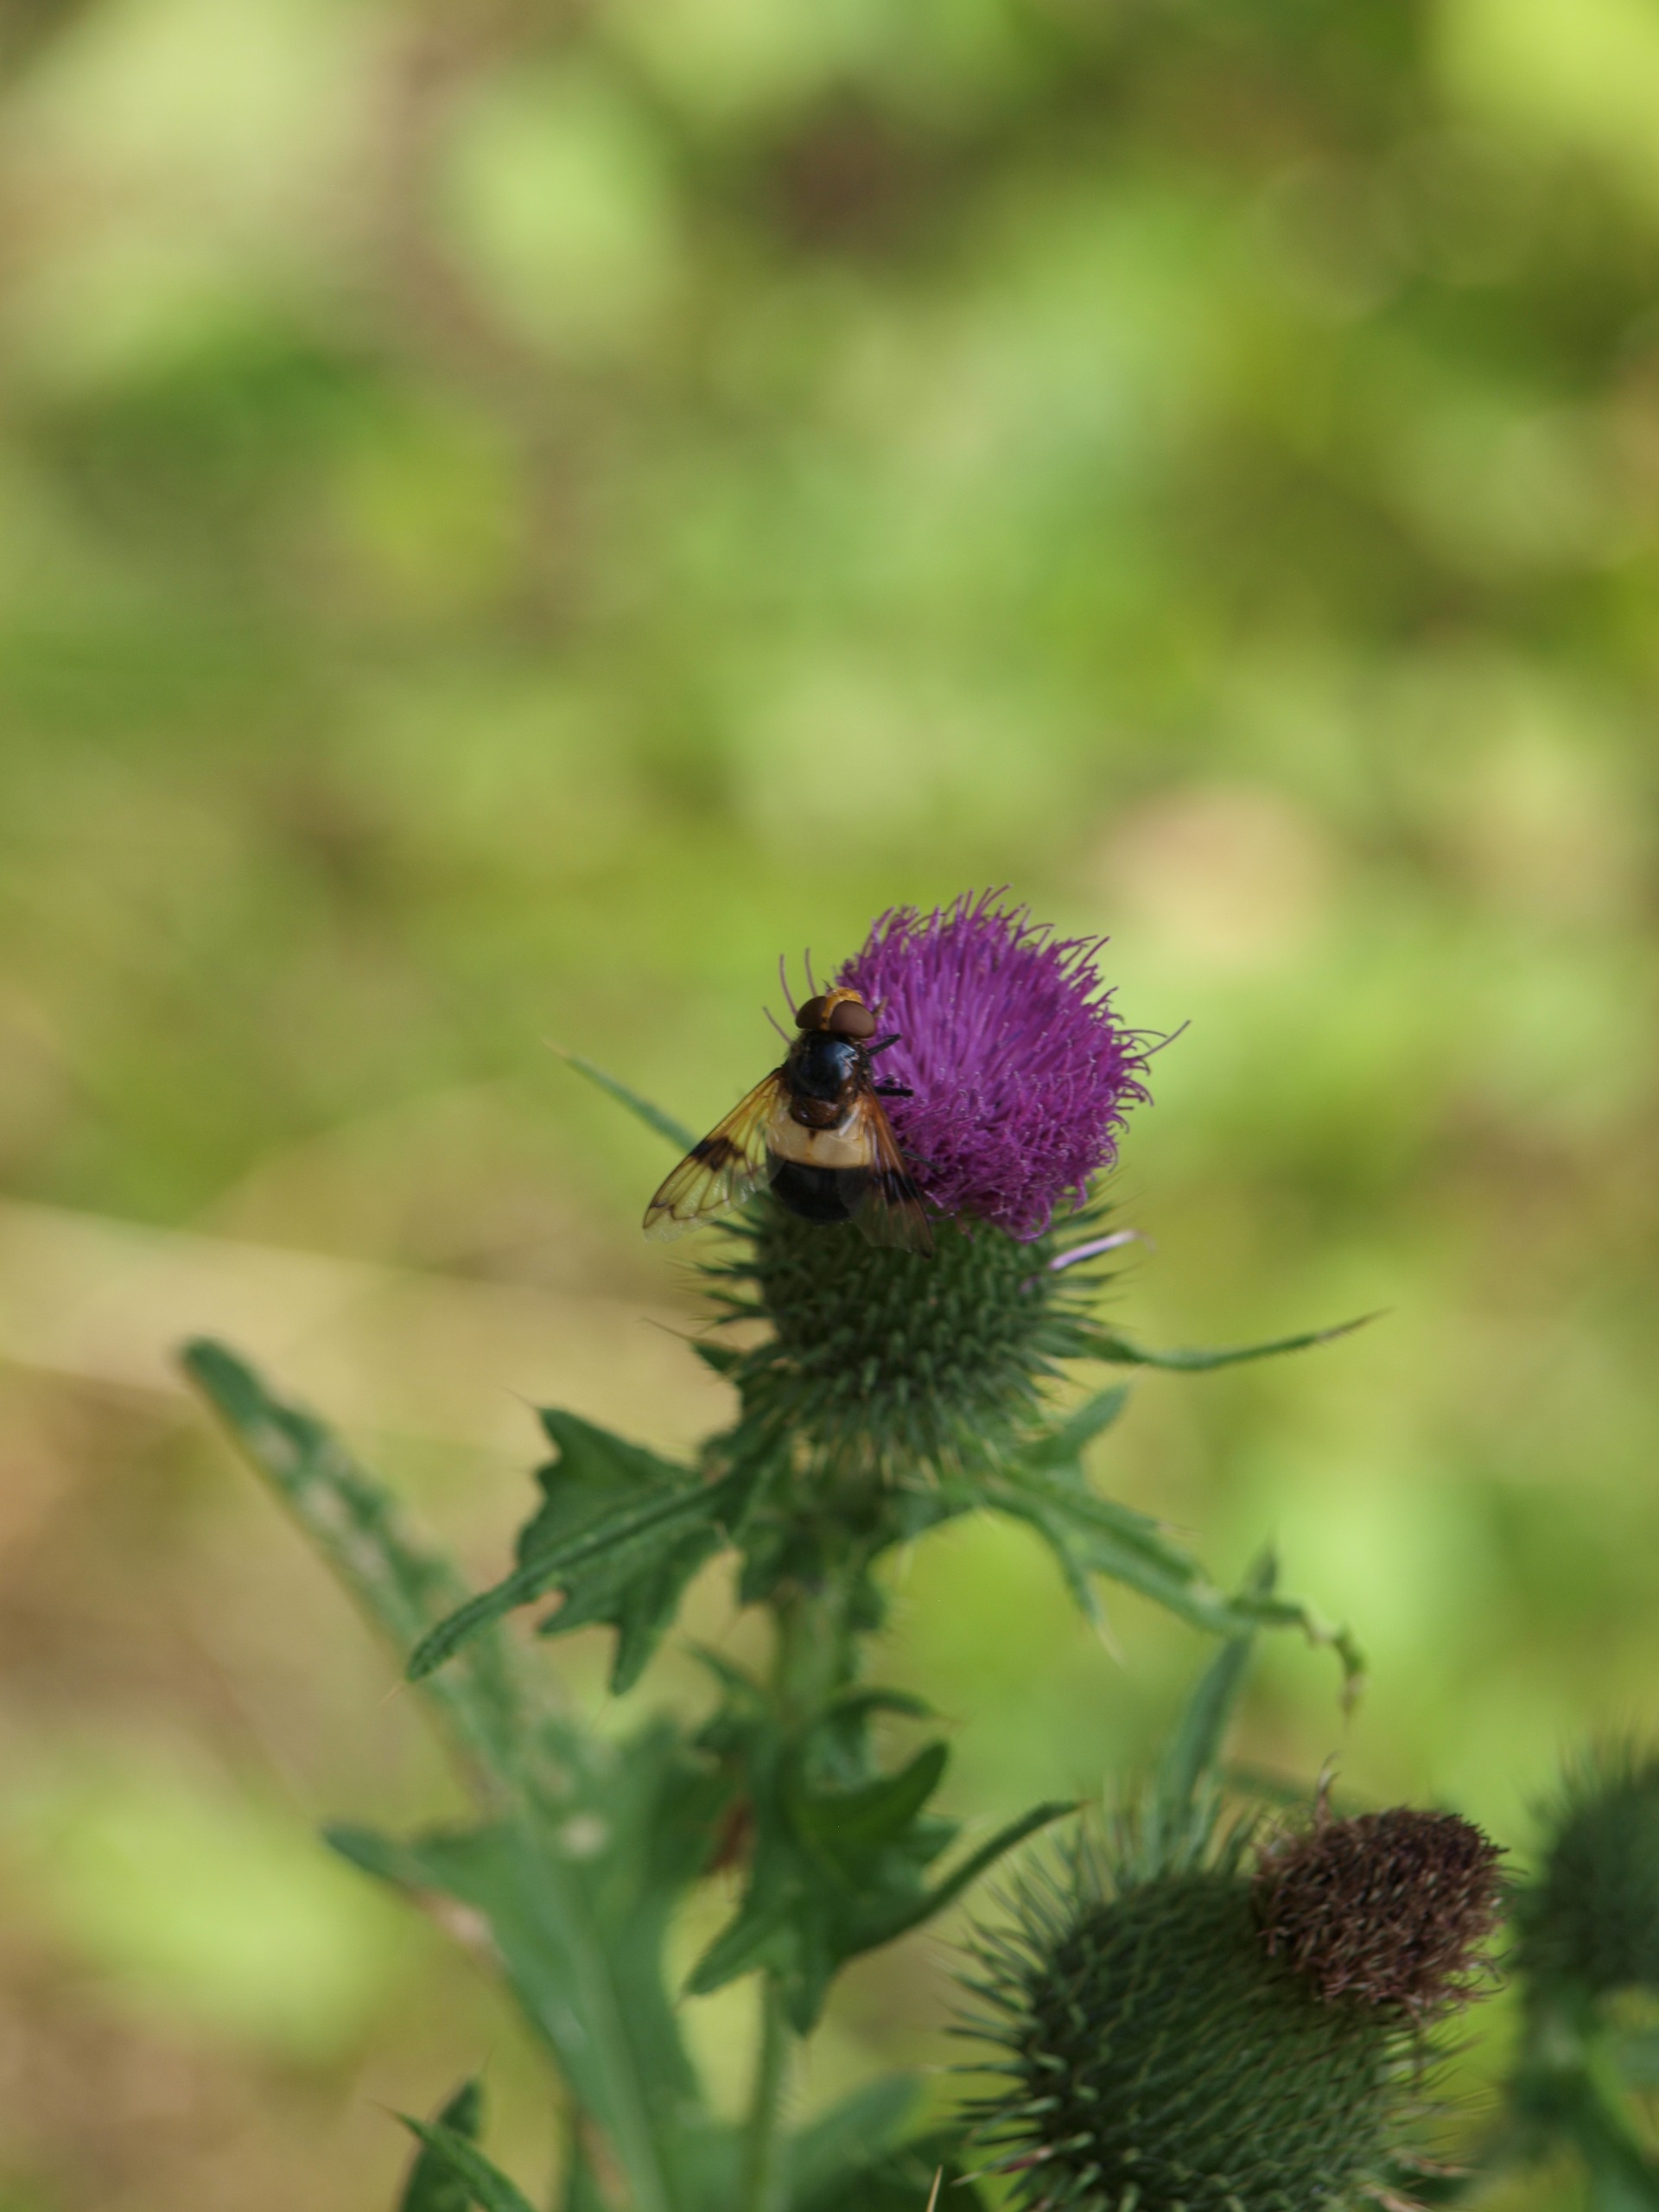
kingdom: Animalia
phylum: Arthropoda
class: Insecta
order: Diptera
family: Syrphidae
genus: Volucella
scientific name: Volucella pellucens
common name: Hvidbåndet humlesvirreflue
